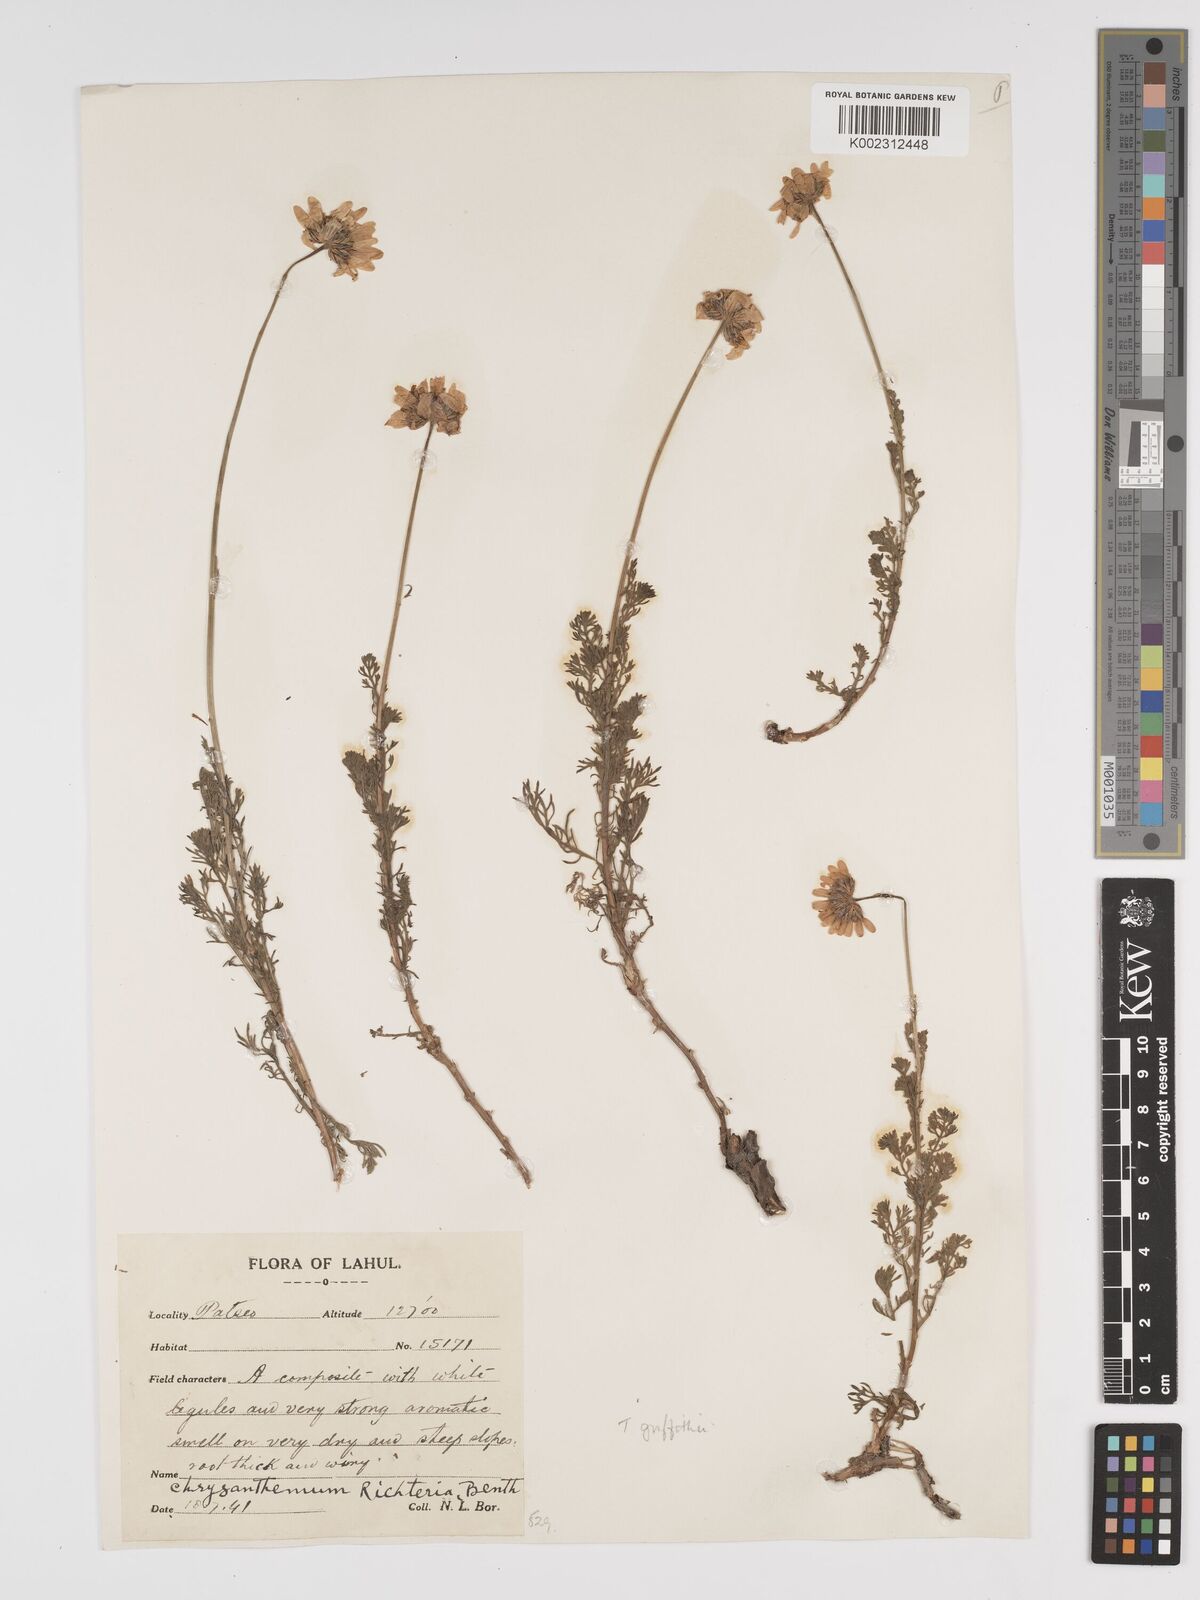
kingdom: Plantae
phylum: Tracheophyta
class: Magnoliopsida
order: Asterales
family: Asteraceae
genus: Tanacetum
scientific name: Tanacetum stoliczkae
